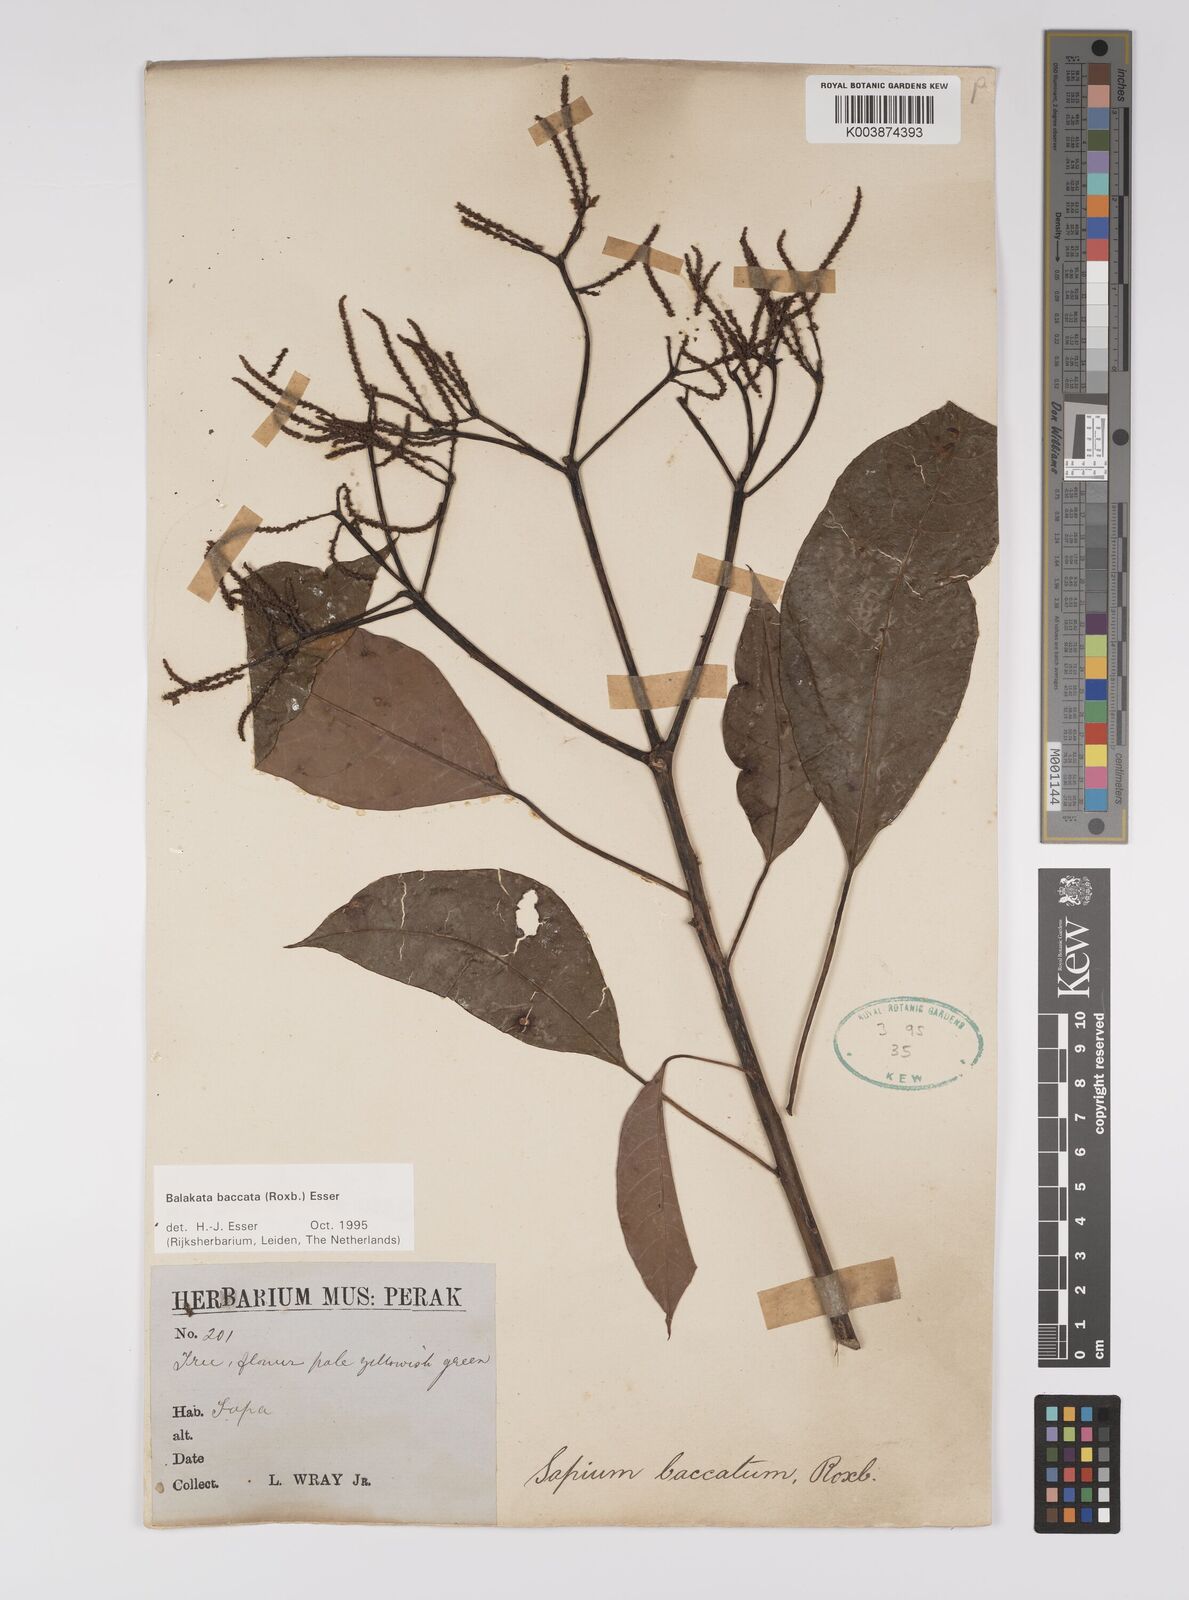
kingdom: Plantae
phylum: Tracheophyta
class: Magnoliopsida
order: Malpighiales
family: Euphorbiaceae
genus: Balakata
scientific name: Balakata baccata
